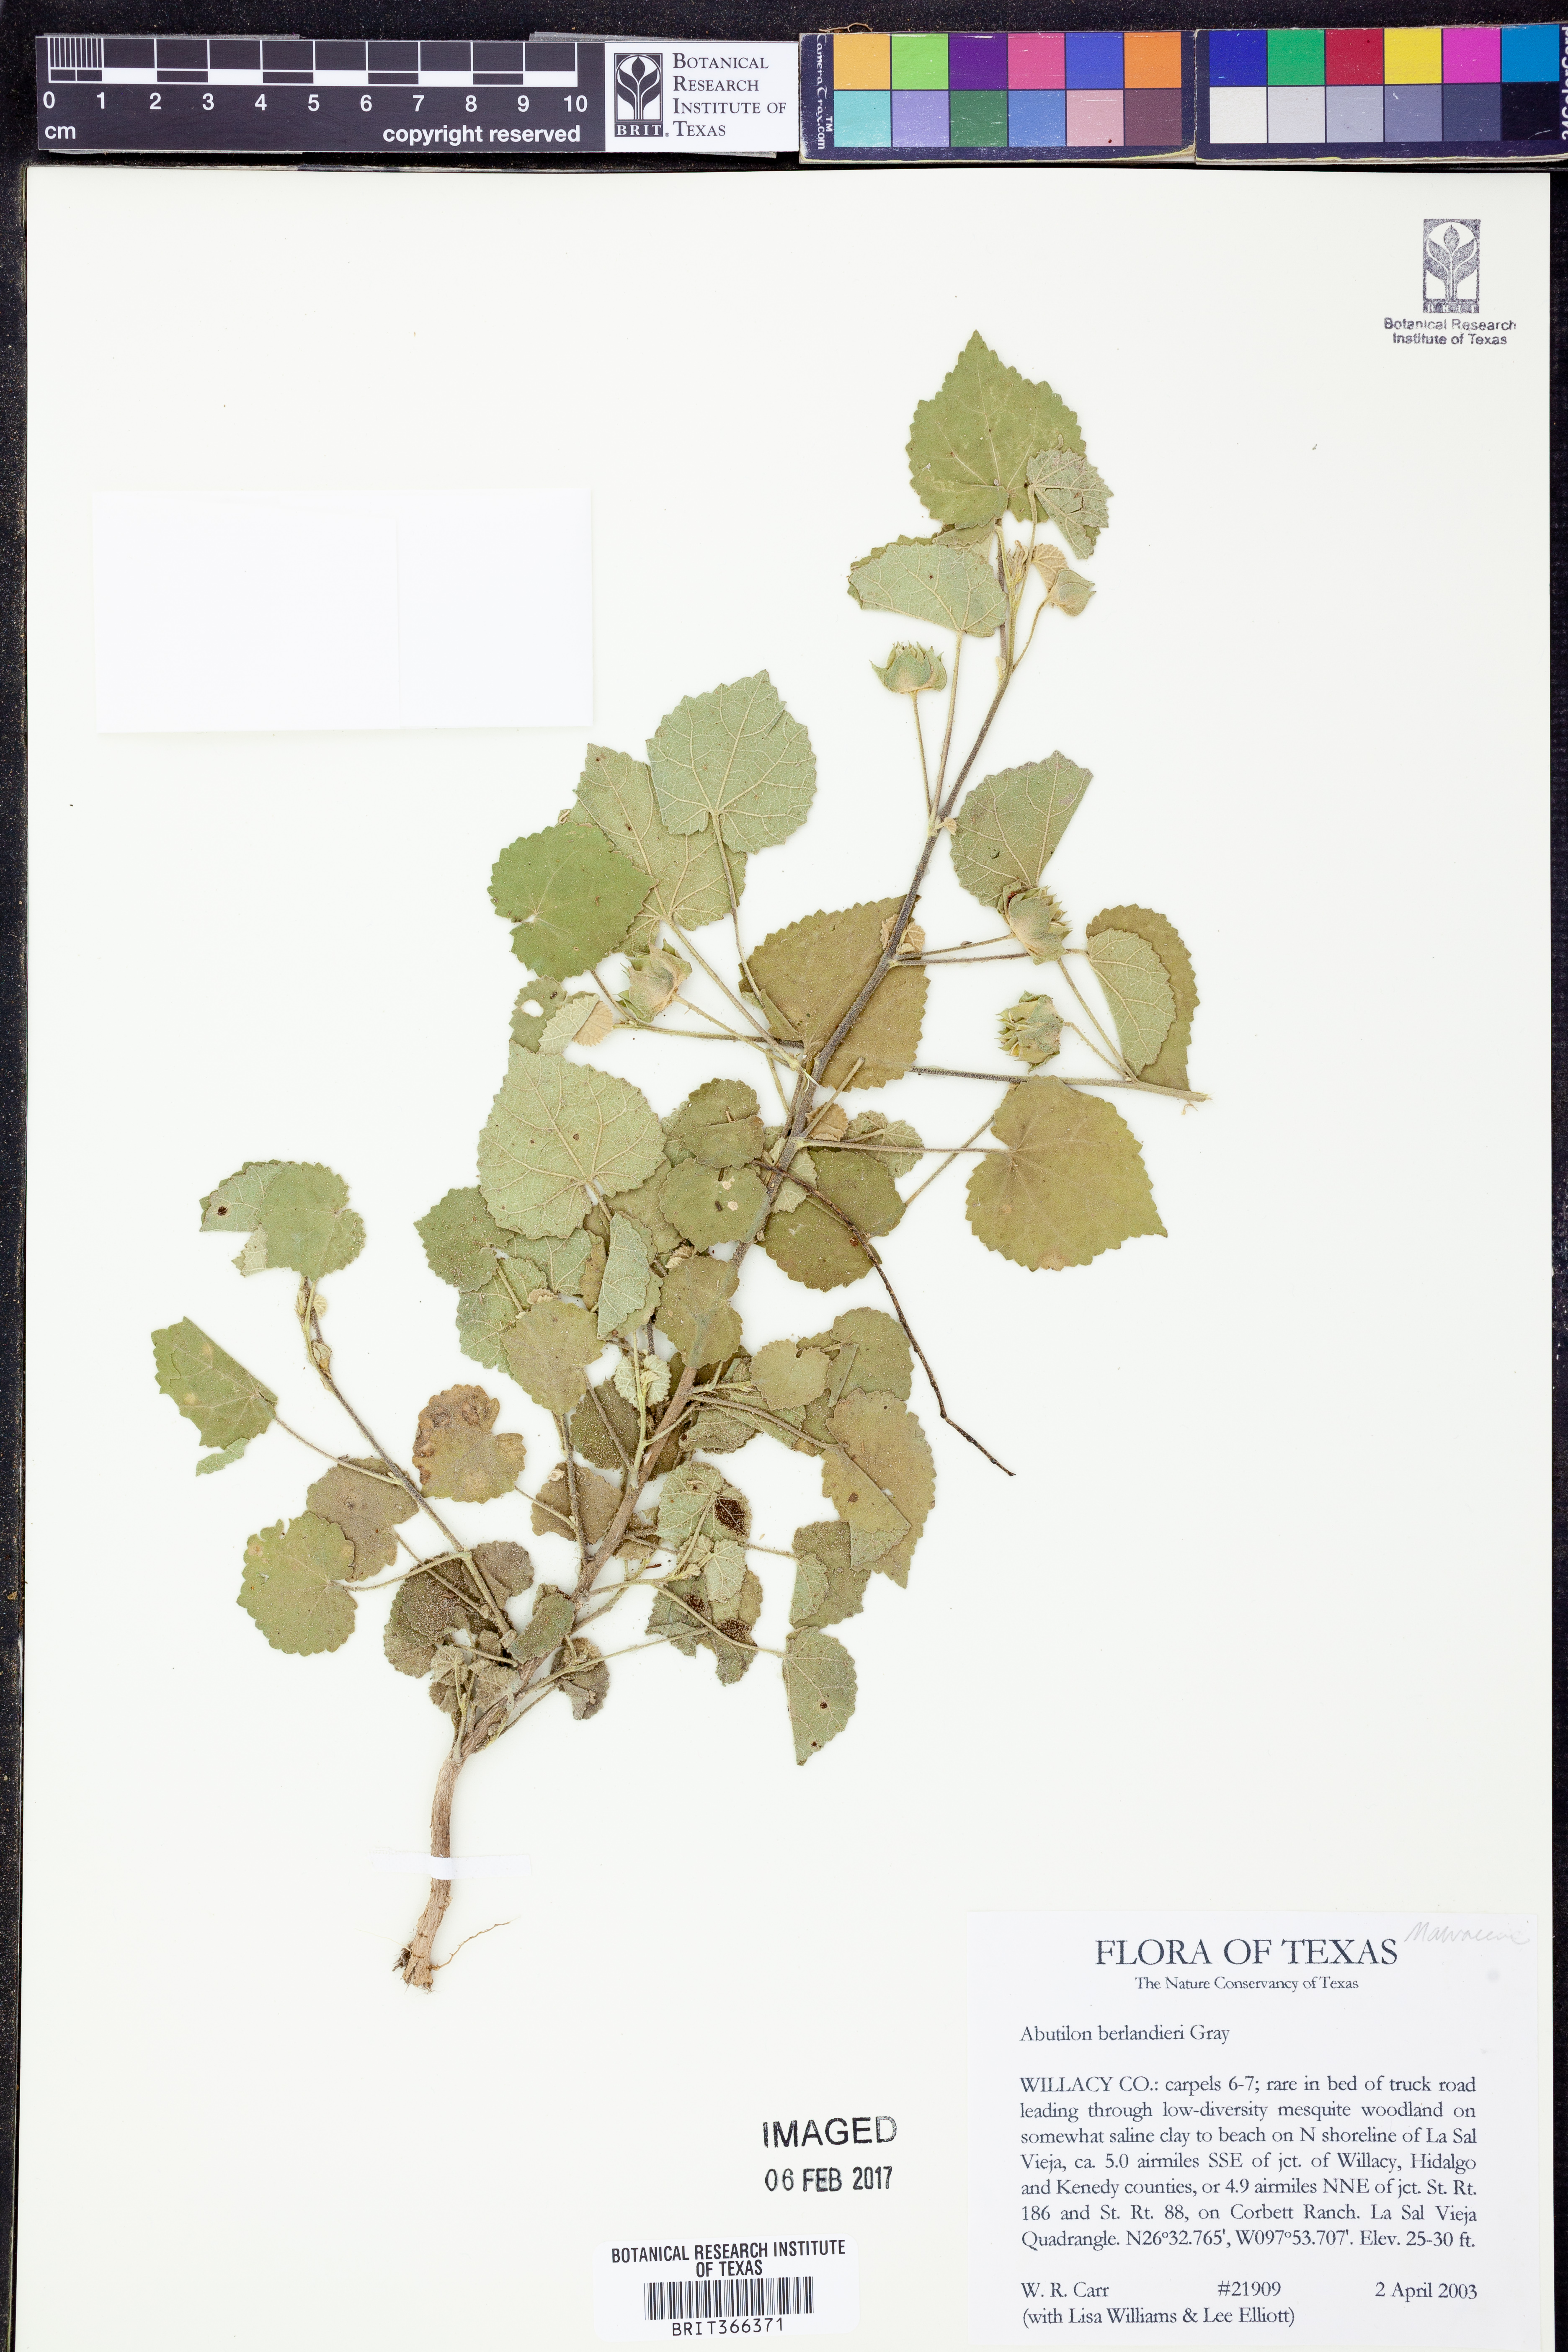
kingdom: Plantae
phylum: Tracheophyta
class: Magnoliopsida
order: Malvales
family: Malvaceae
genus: Abutilon
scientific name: Abutilon berlandieri
